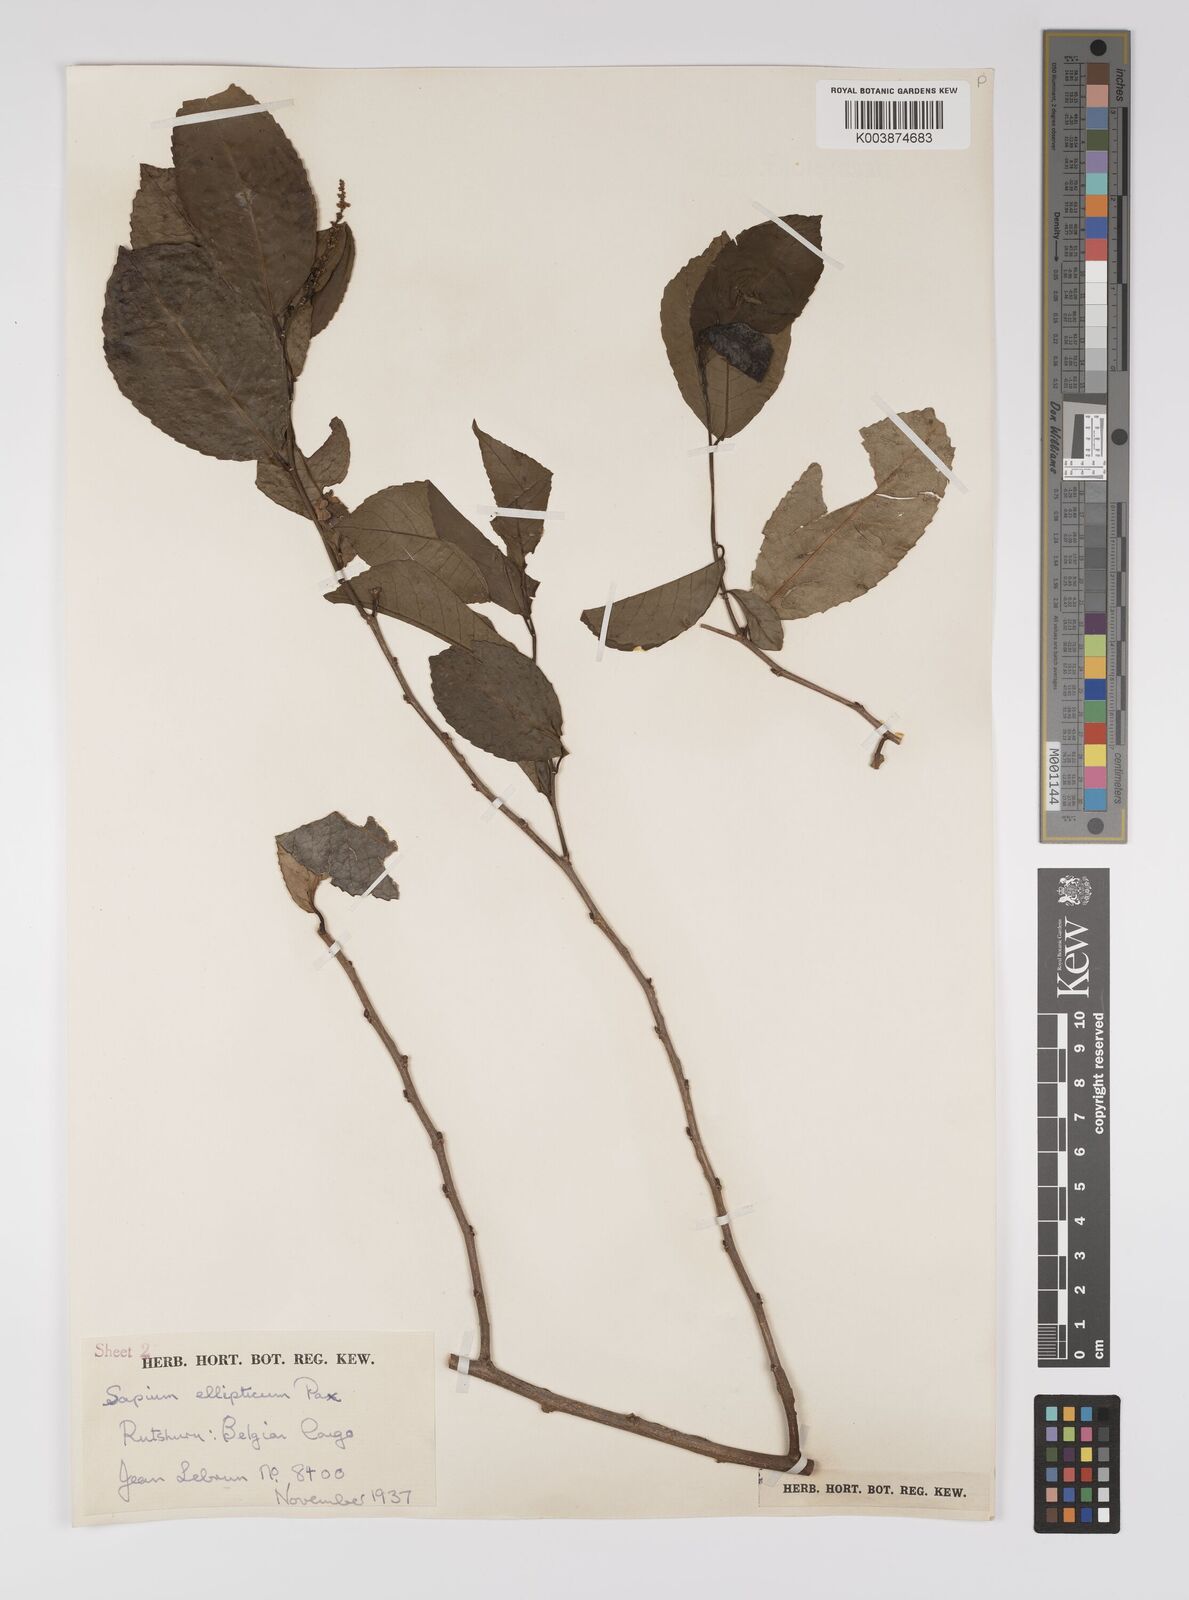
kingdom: Plantae
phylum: Tracheophyta
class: Magnoliopsida
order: Malpighiales
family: Euphorbiaceae
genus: Shirakiopsis
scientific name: Shirakiopsis elliptica
